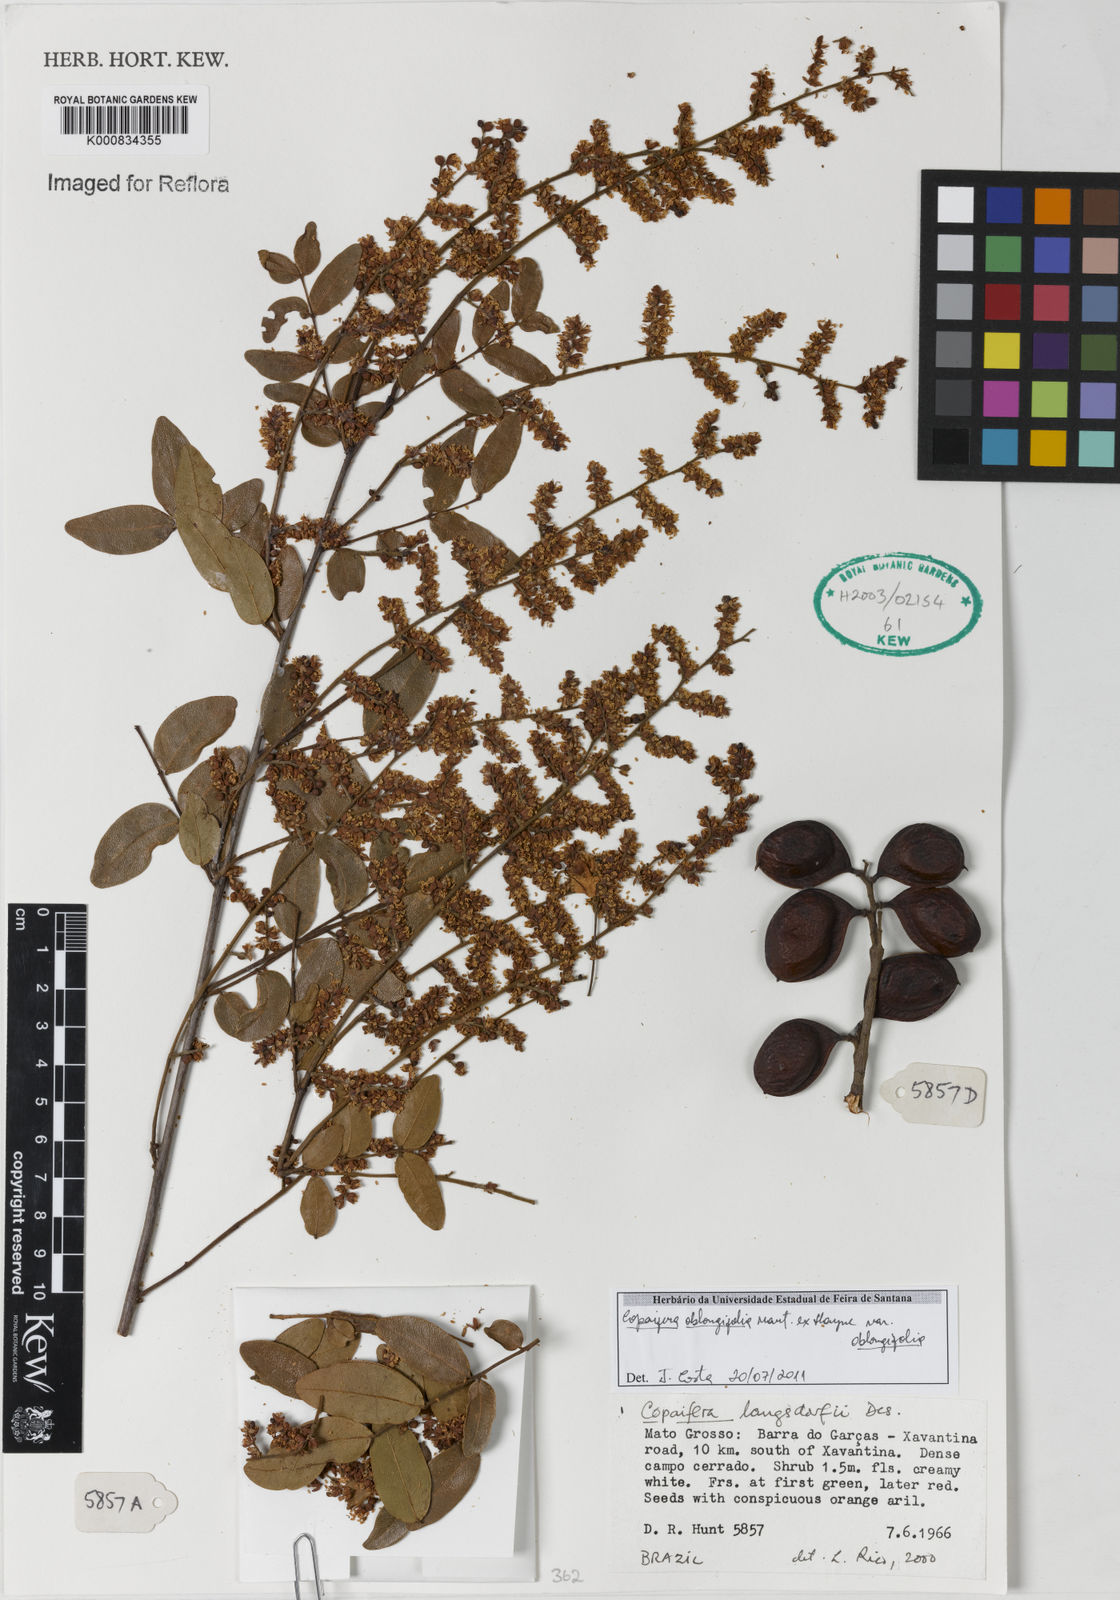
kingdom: Plantae
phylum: Tracheophyta
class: Magnoliopsida
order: Fabales
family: Fabaceae
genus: Copaifera
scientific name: Copaifera
